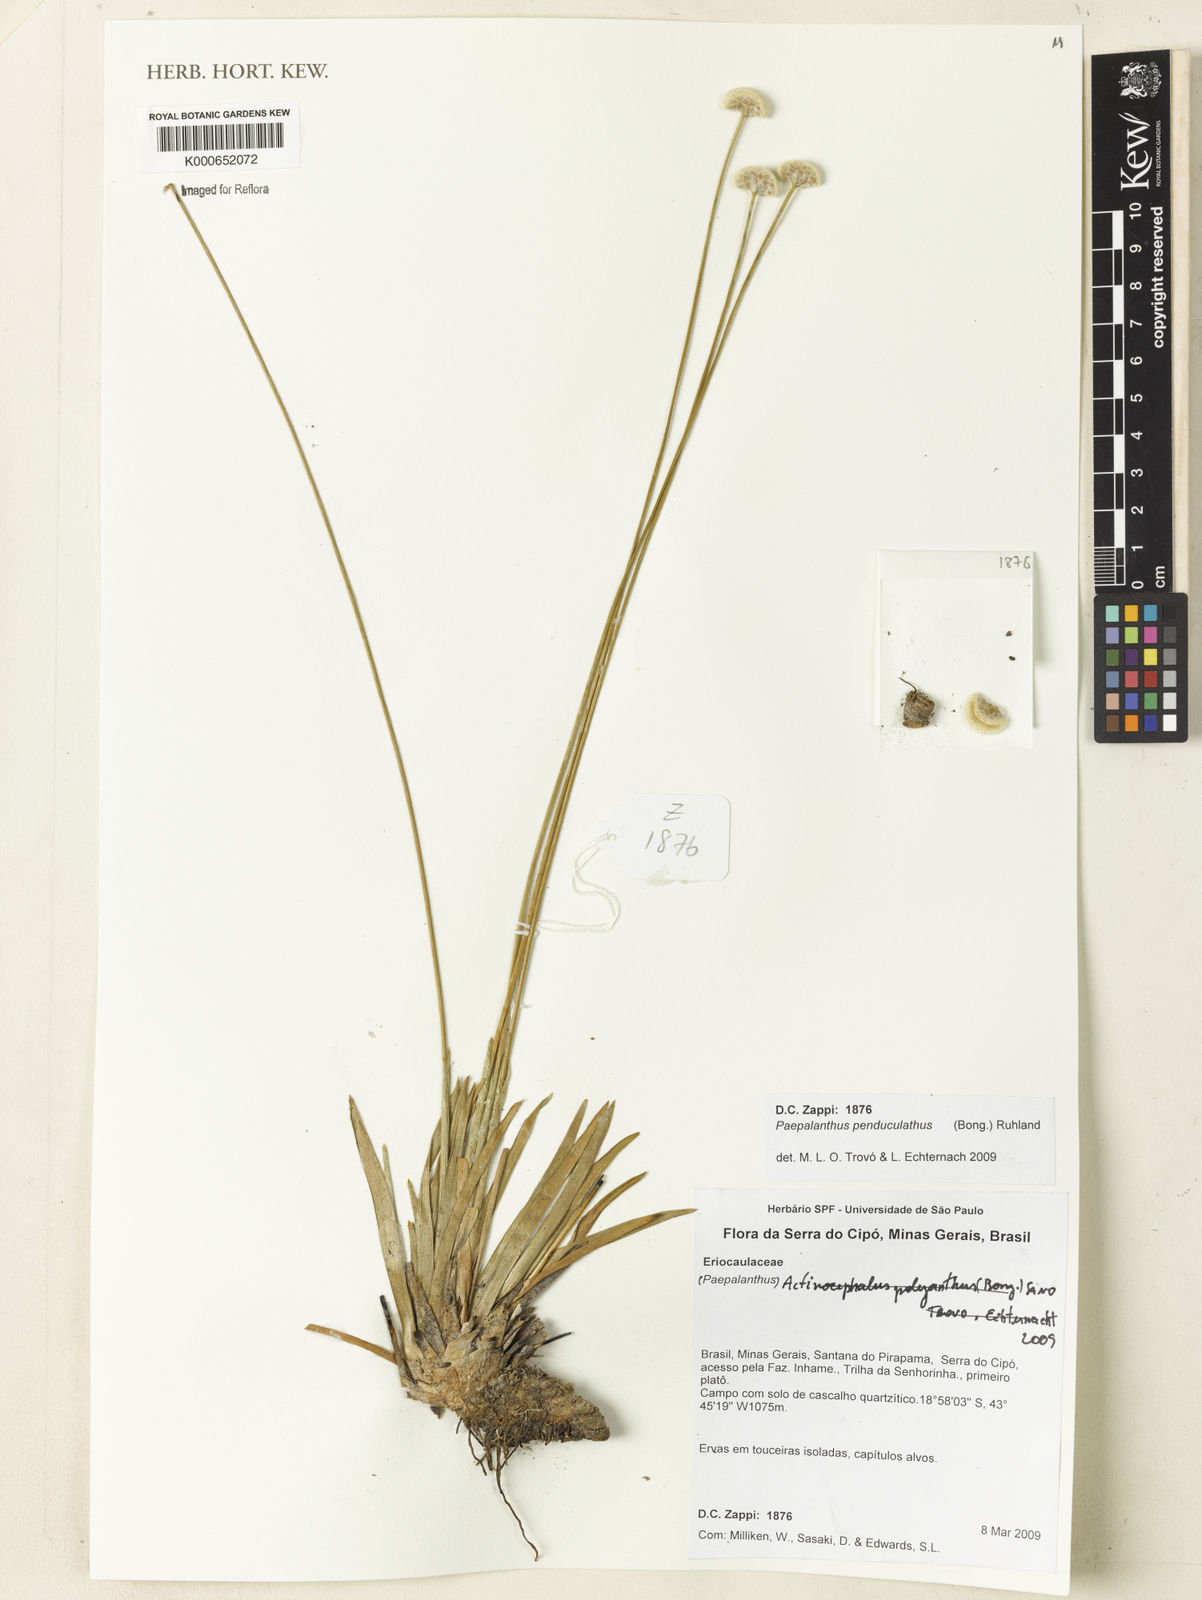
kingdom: Plantae
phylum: Tracheophyta
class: Liliopsida
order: Poales
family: Eriocaulaceae
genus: Paepalanthus
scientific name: Paepalanthus pedunculatus
